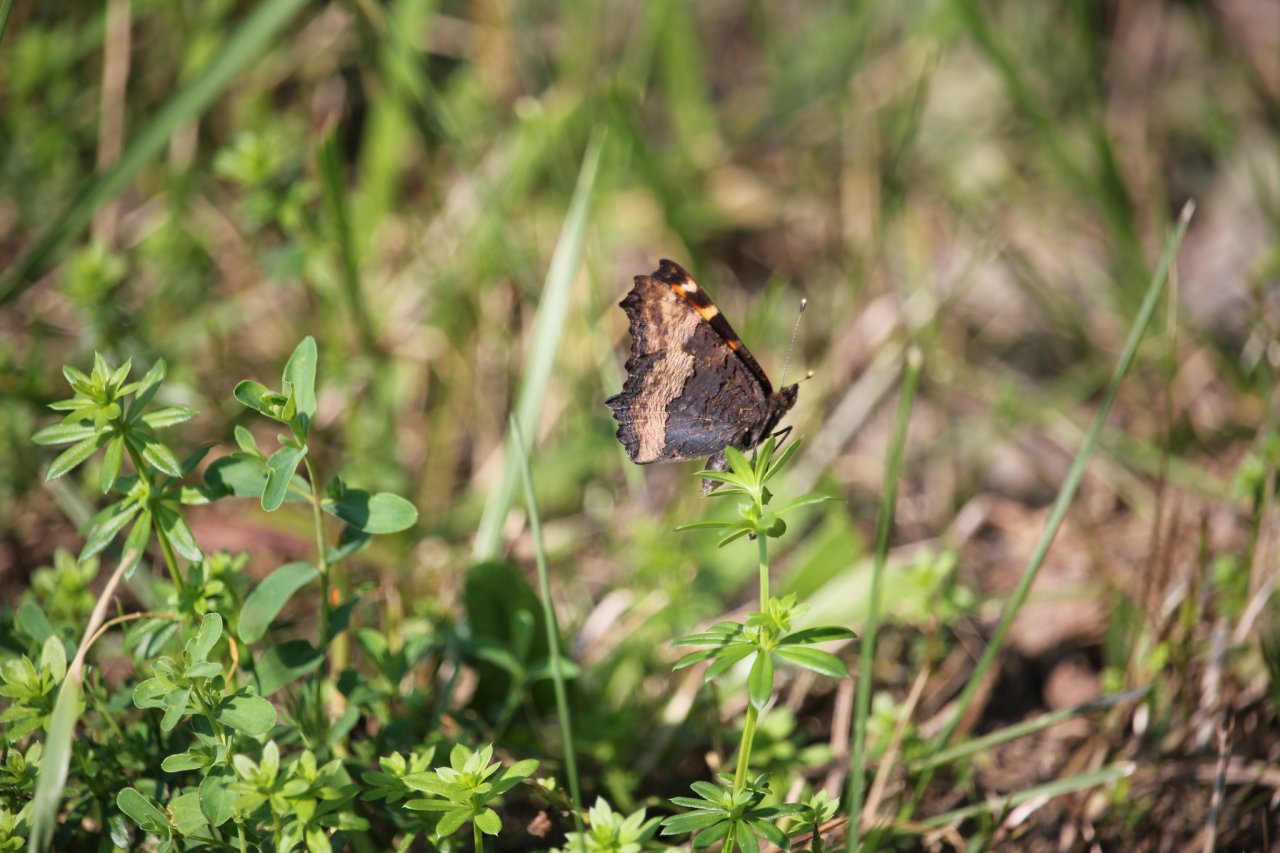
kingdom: Animalia
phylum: Arthropoda
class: Insecta
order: Lepidoptera
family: Nymphalidae
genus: Aglais
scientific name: Aglais milberti
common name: Milbert's Tortoiseshell
